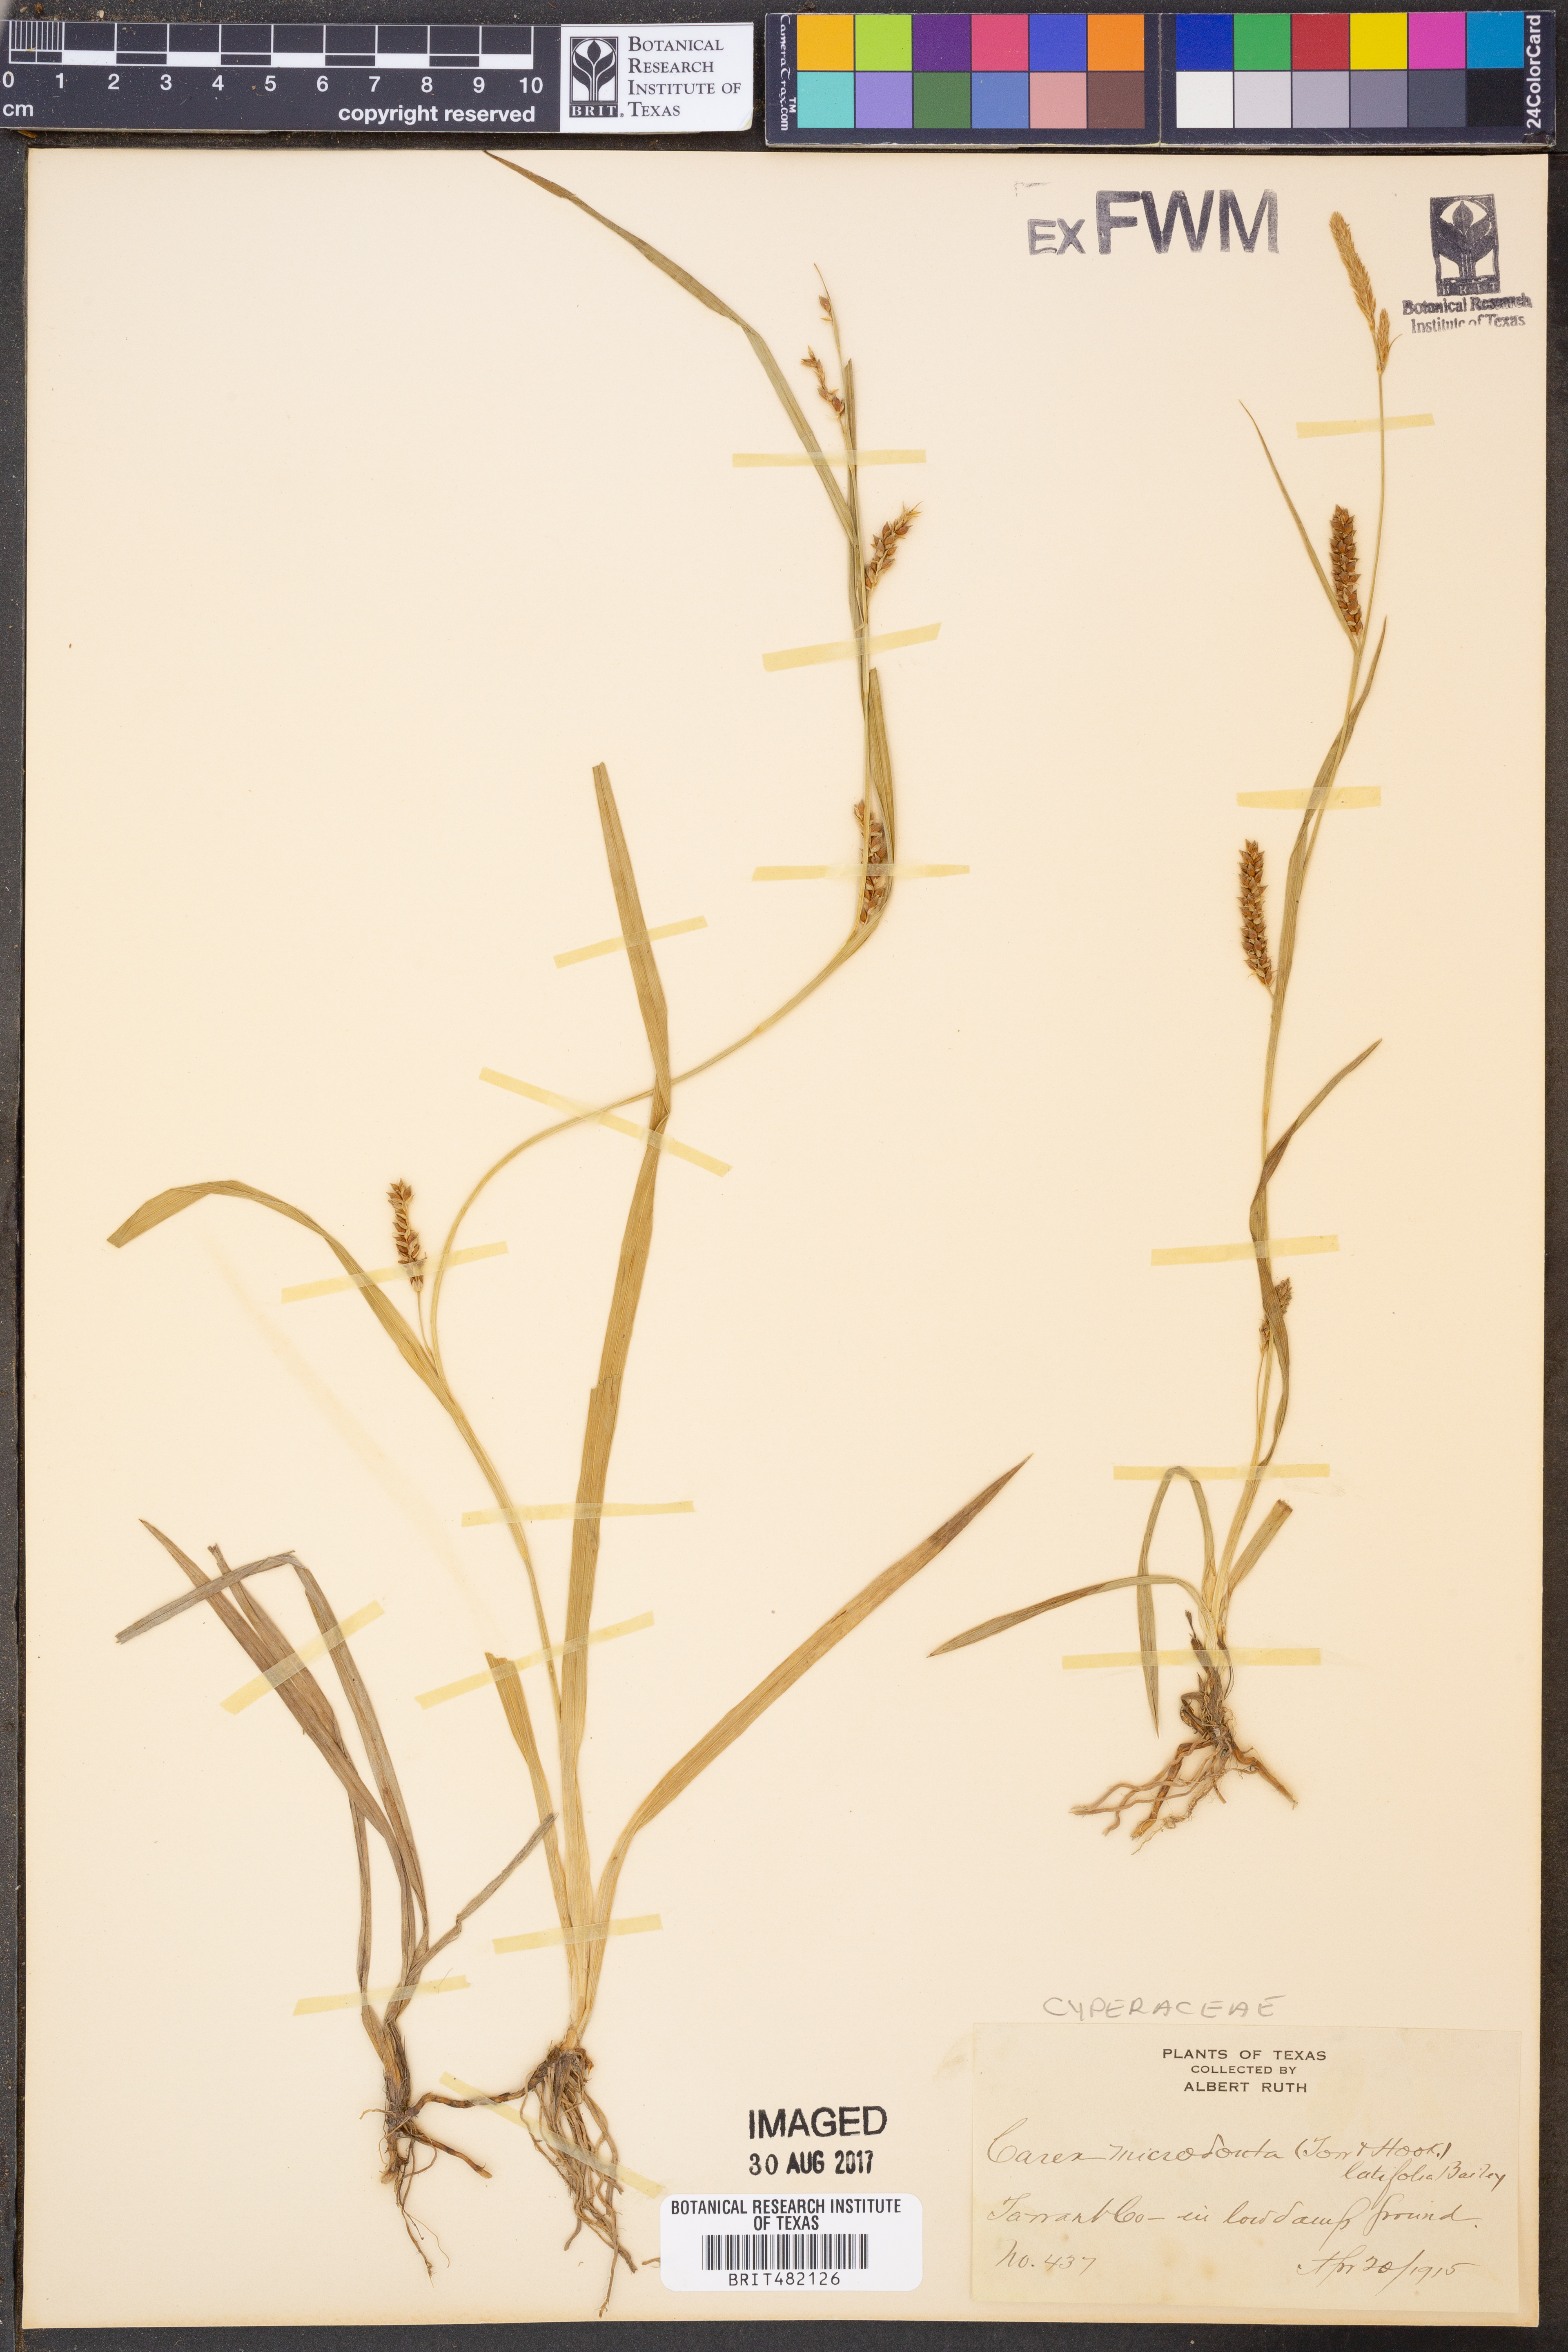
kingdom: Plantae
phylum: Tracheophyta
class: Liliopsida
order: Poales
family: Cyperaceae
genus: Carex
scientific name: Carex microdonta
